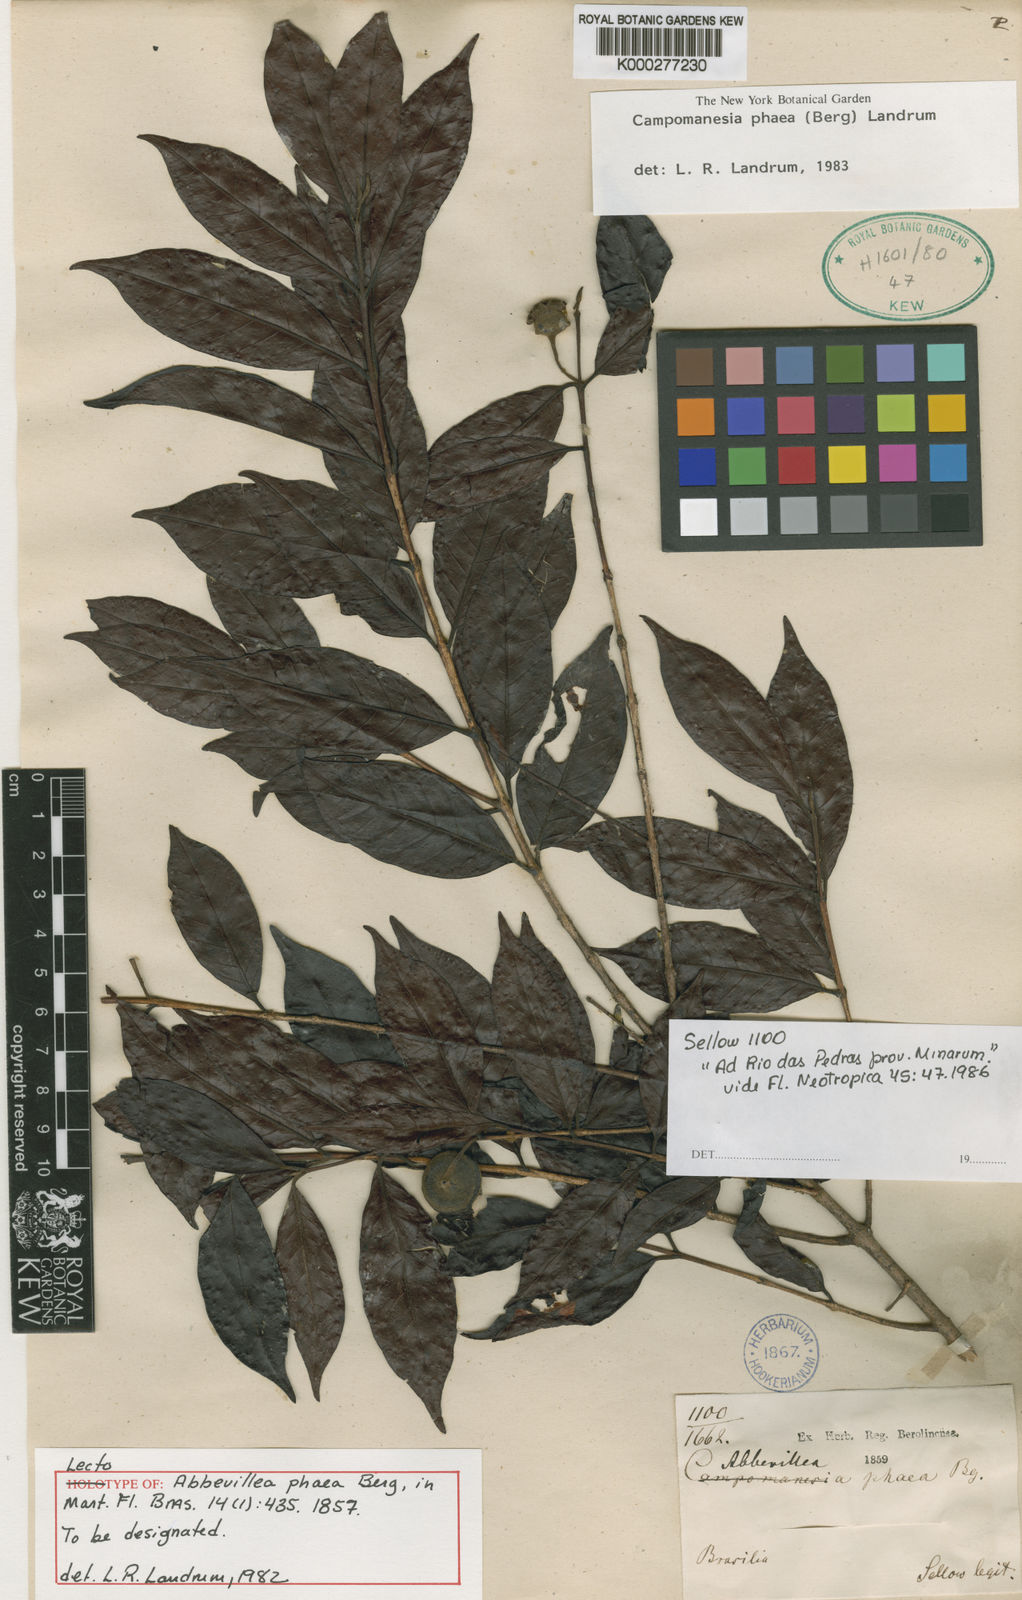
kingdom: Plantae
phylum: Tracheophyta
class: Magnoliopsida
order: Myrtales
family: Myrtaceae
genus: Campomanesia
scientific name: Campomanesia phaea
